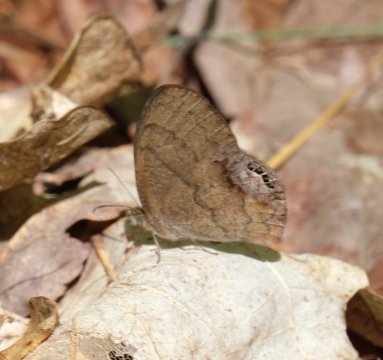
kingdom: Animalia
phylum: Arthropoda
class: Insecta
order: Lepidoptera
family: Nymphalidae
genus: Euptychia
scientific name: Euptychia cornelius
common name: Gemmed Satyr
